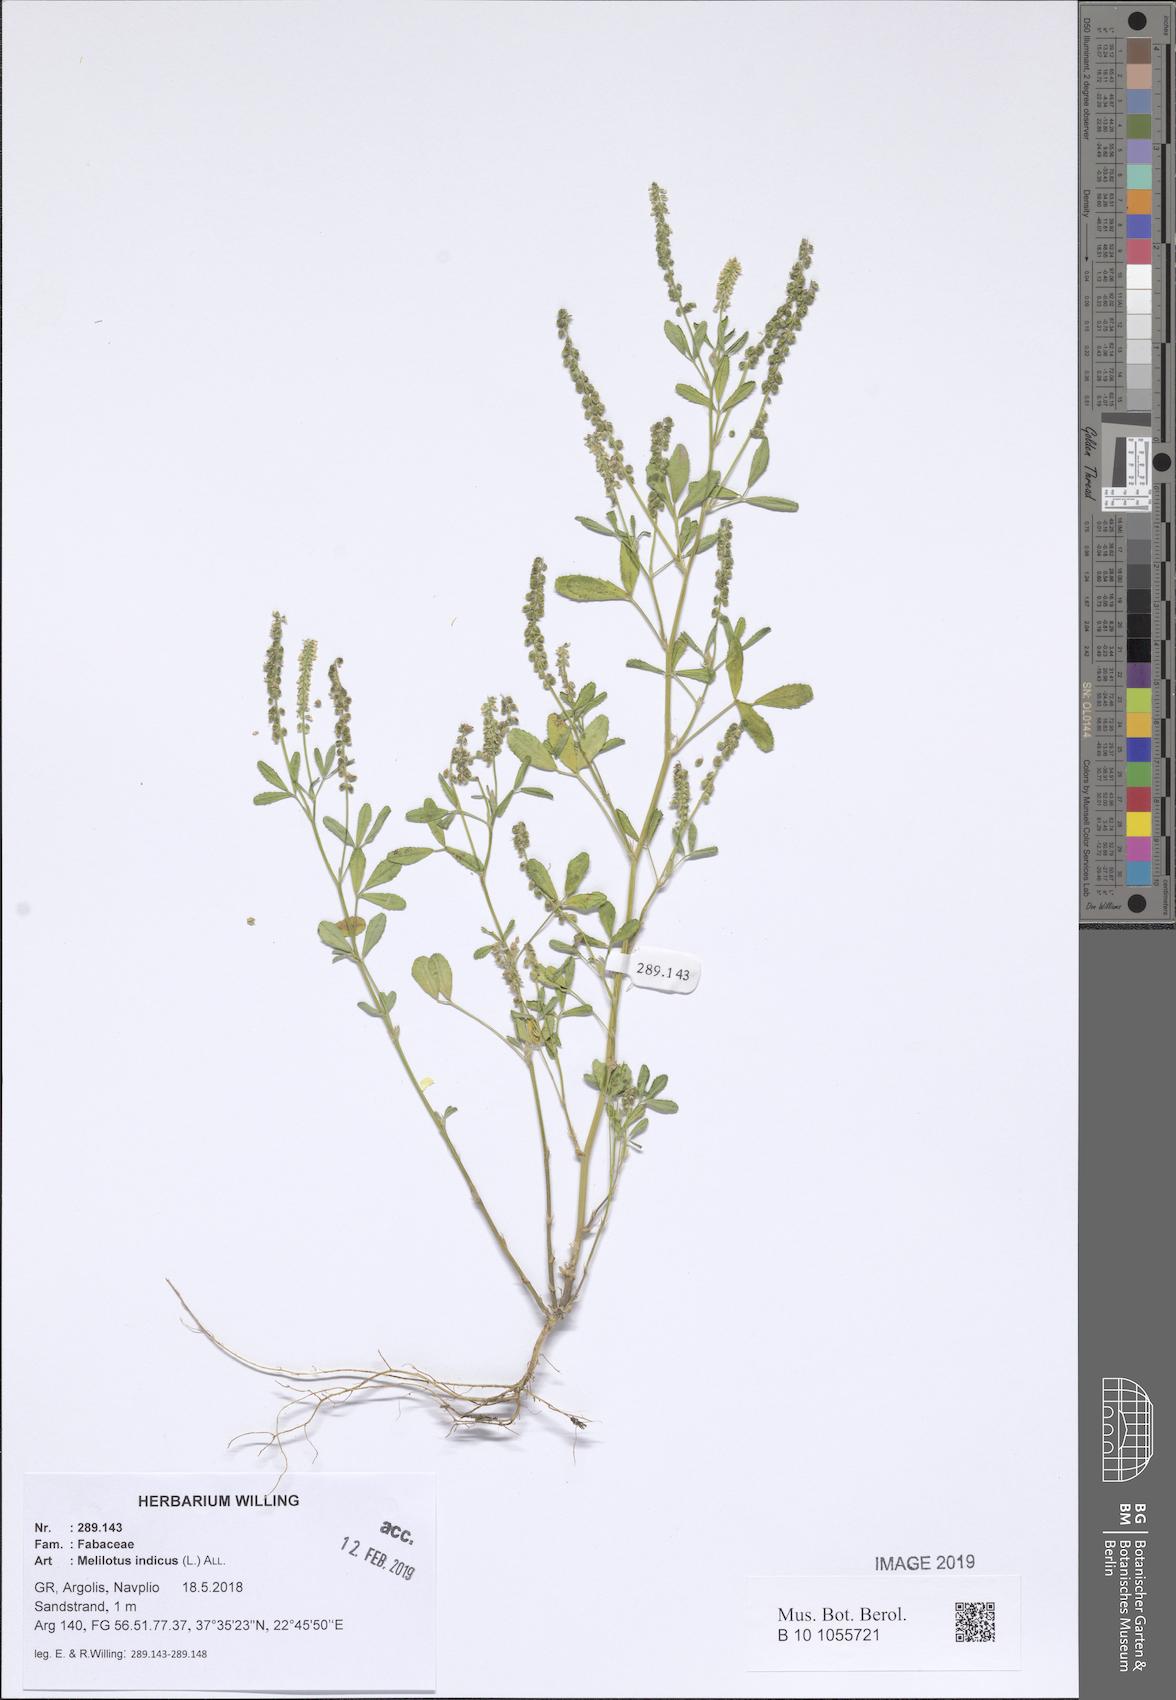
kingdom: Plantae
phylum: Tracheophyta
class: Magnoliopsida
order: Fabales
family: Fabaceae
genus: Melilotus
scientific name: Melilotus indicus
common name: Small melilot
